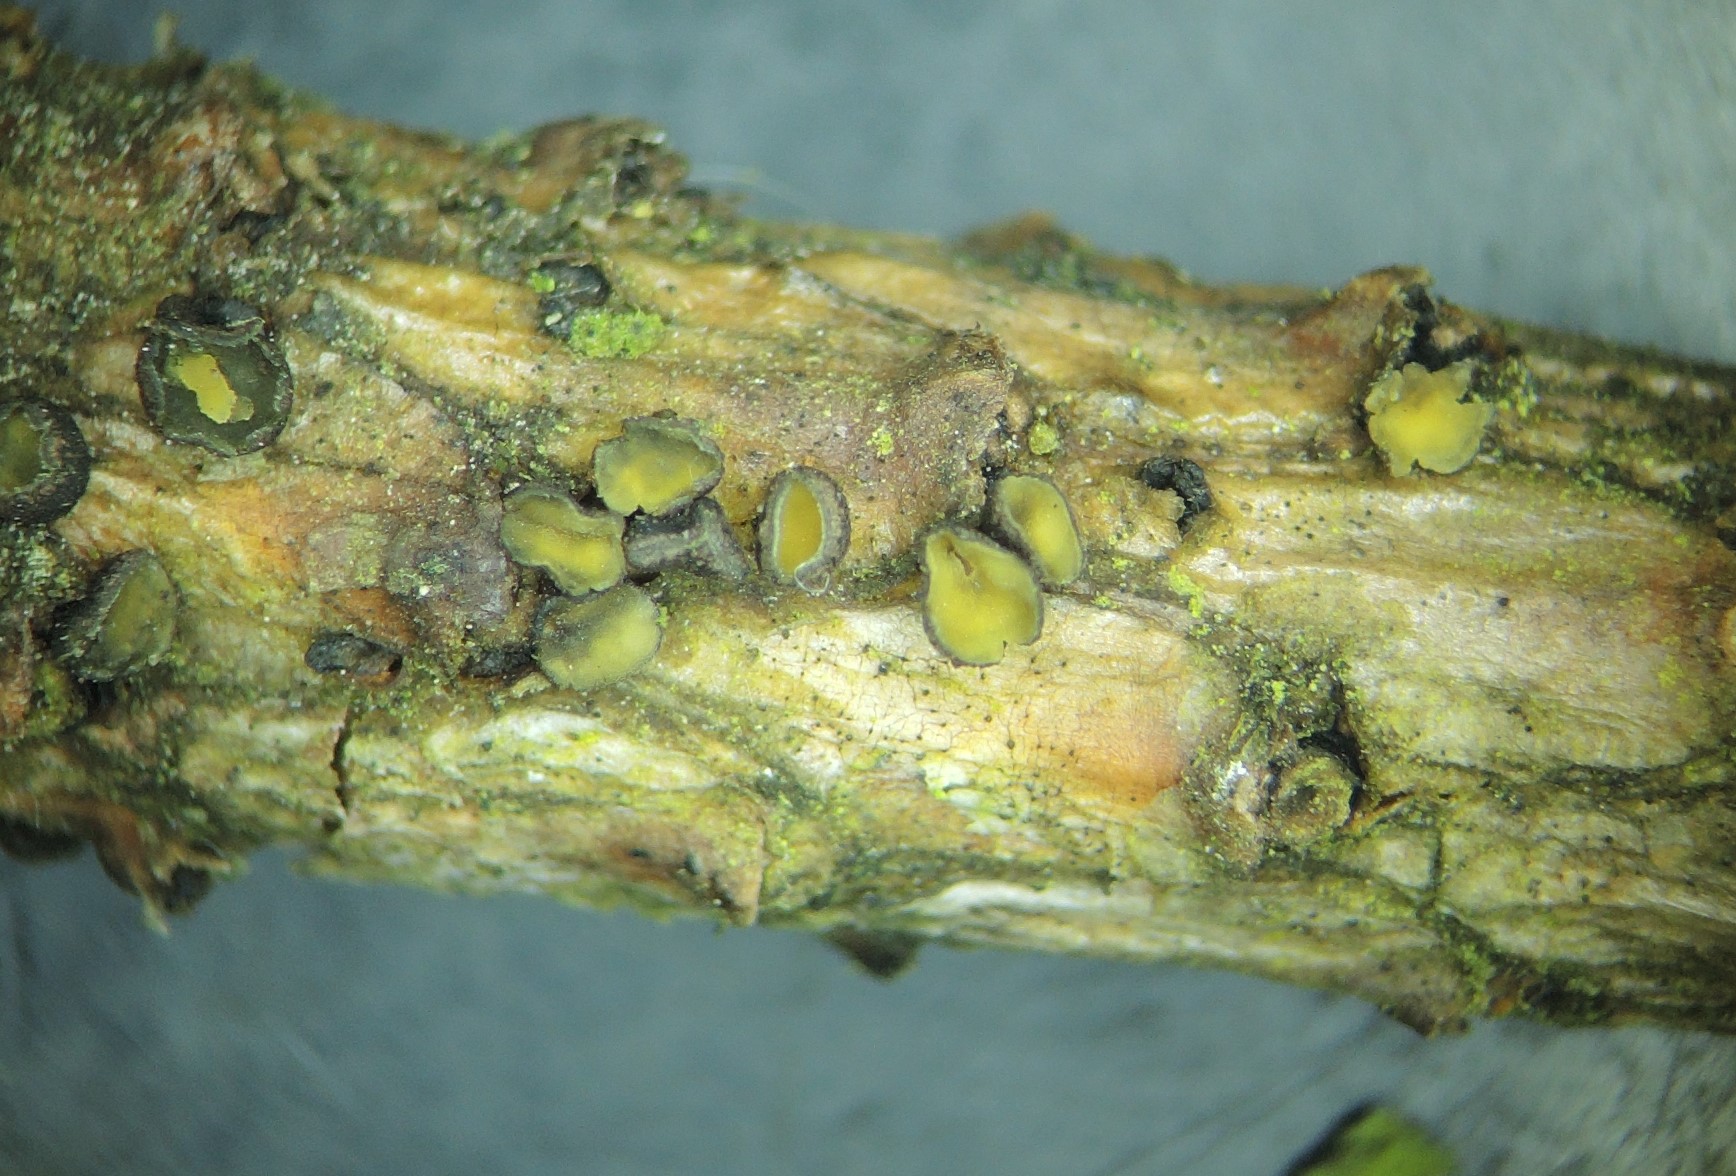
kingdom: Fungi
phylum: Ascomycota
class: Leotiomycetes
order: Helotiales
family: Cenangiaceae
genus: Cenangium
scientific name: Cenangium ferruginosum
